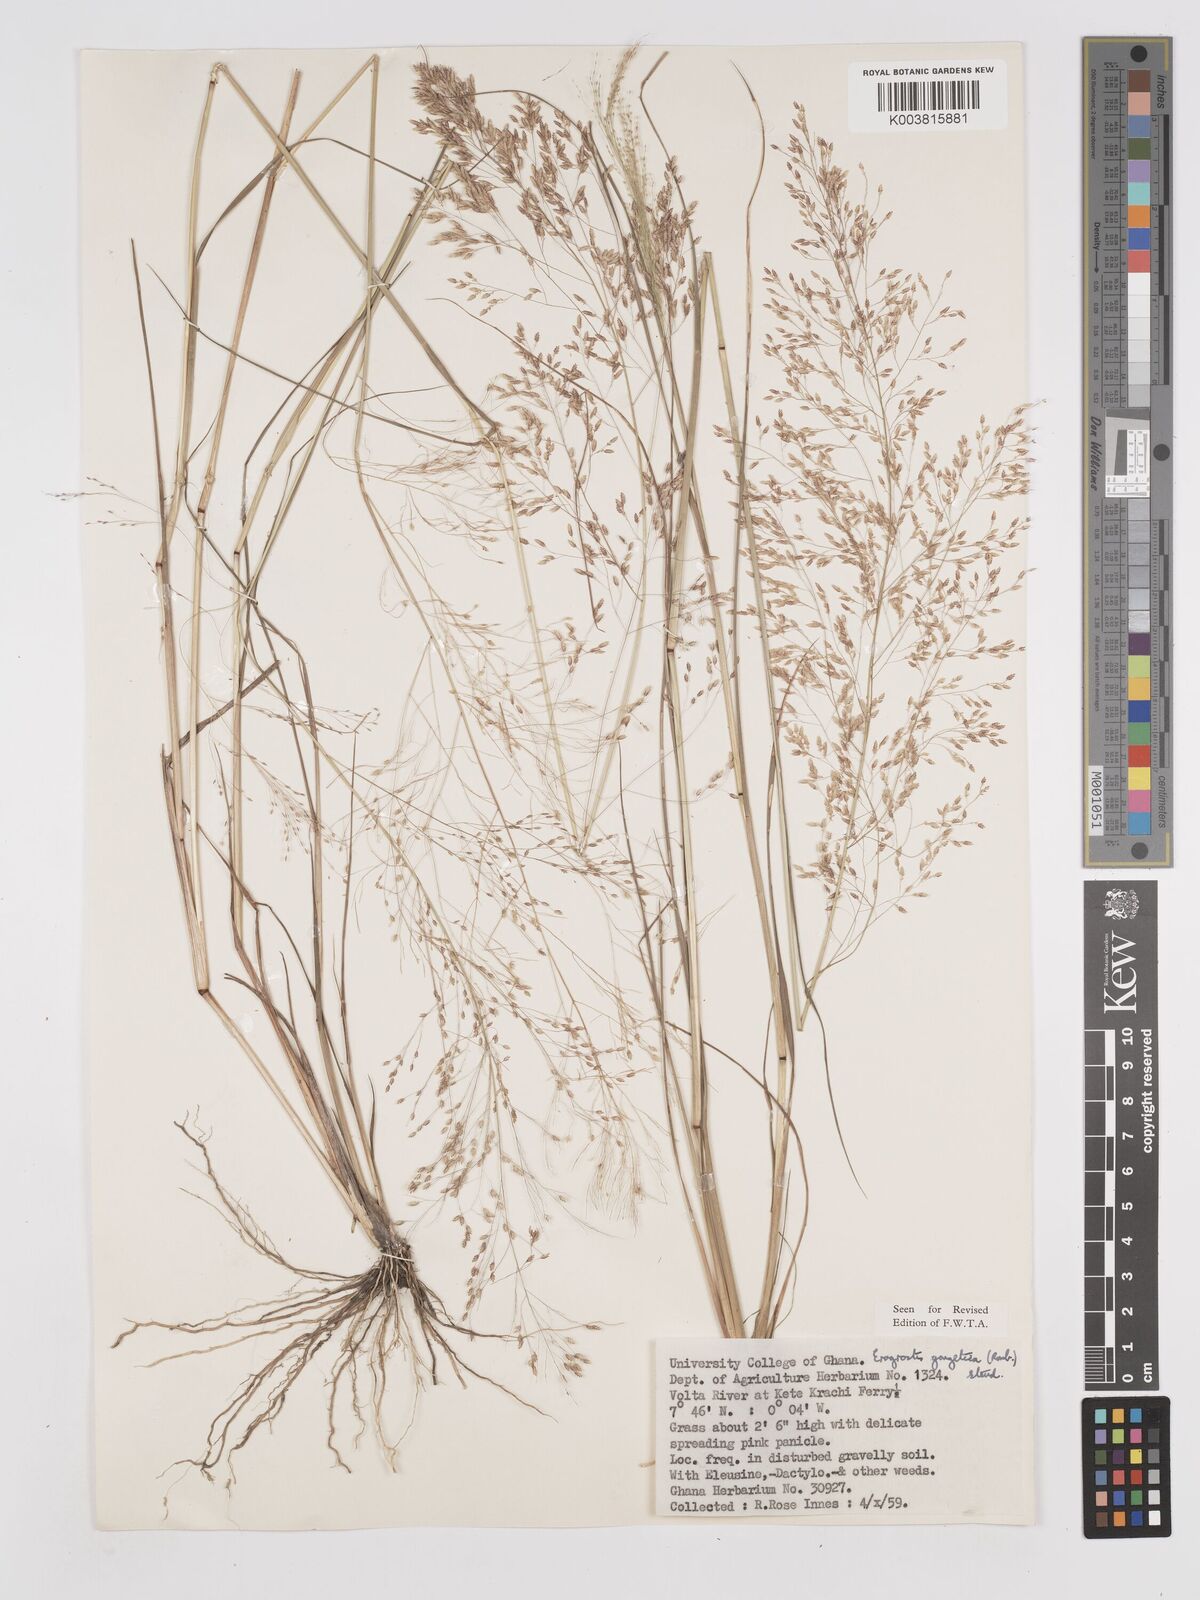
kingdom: Plantae
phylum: Tracheophyta
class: Liliopsida
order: Poales
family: Poaceae
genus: Eragrostis
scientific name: Eragrostis gangetica
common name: Slimflower lovegrass
